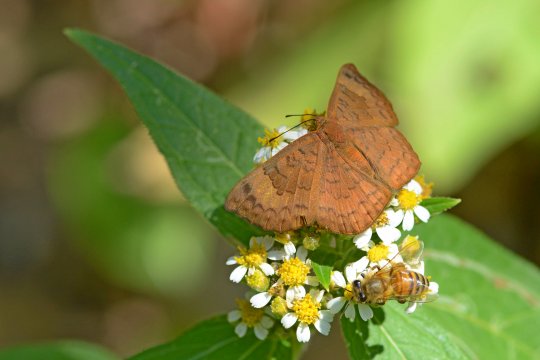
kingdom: Animalia
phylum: Arthropoda
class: Insecta
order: Lepidoptera
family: Lycaenidae
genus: Emesis
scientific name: Emesis tenedia
